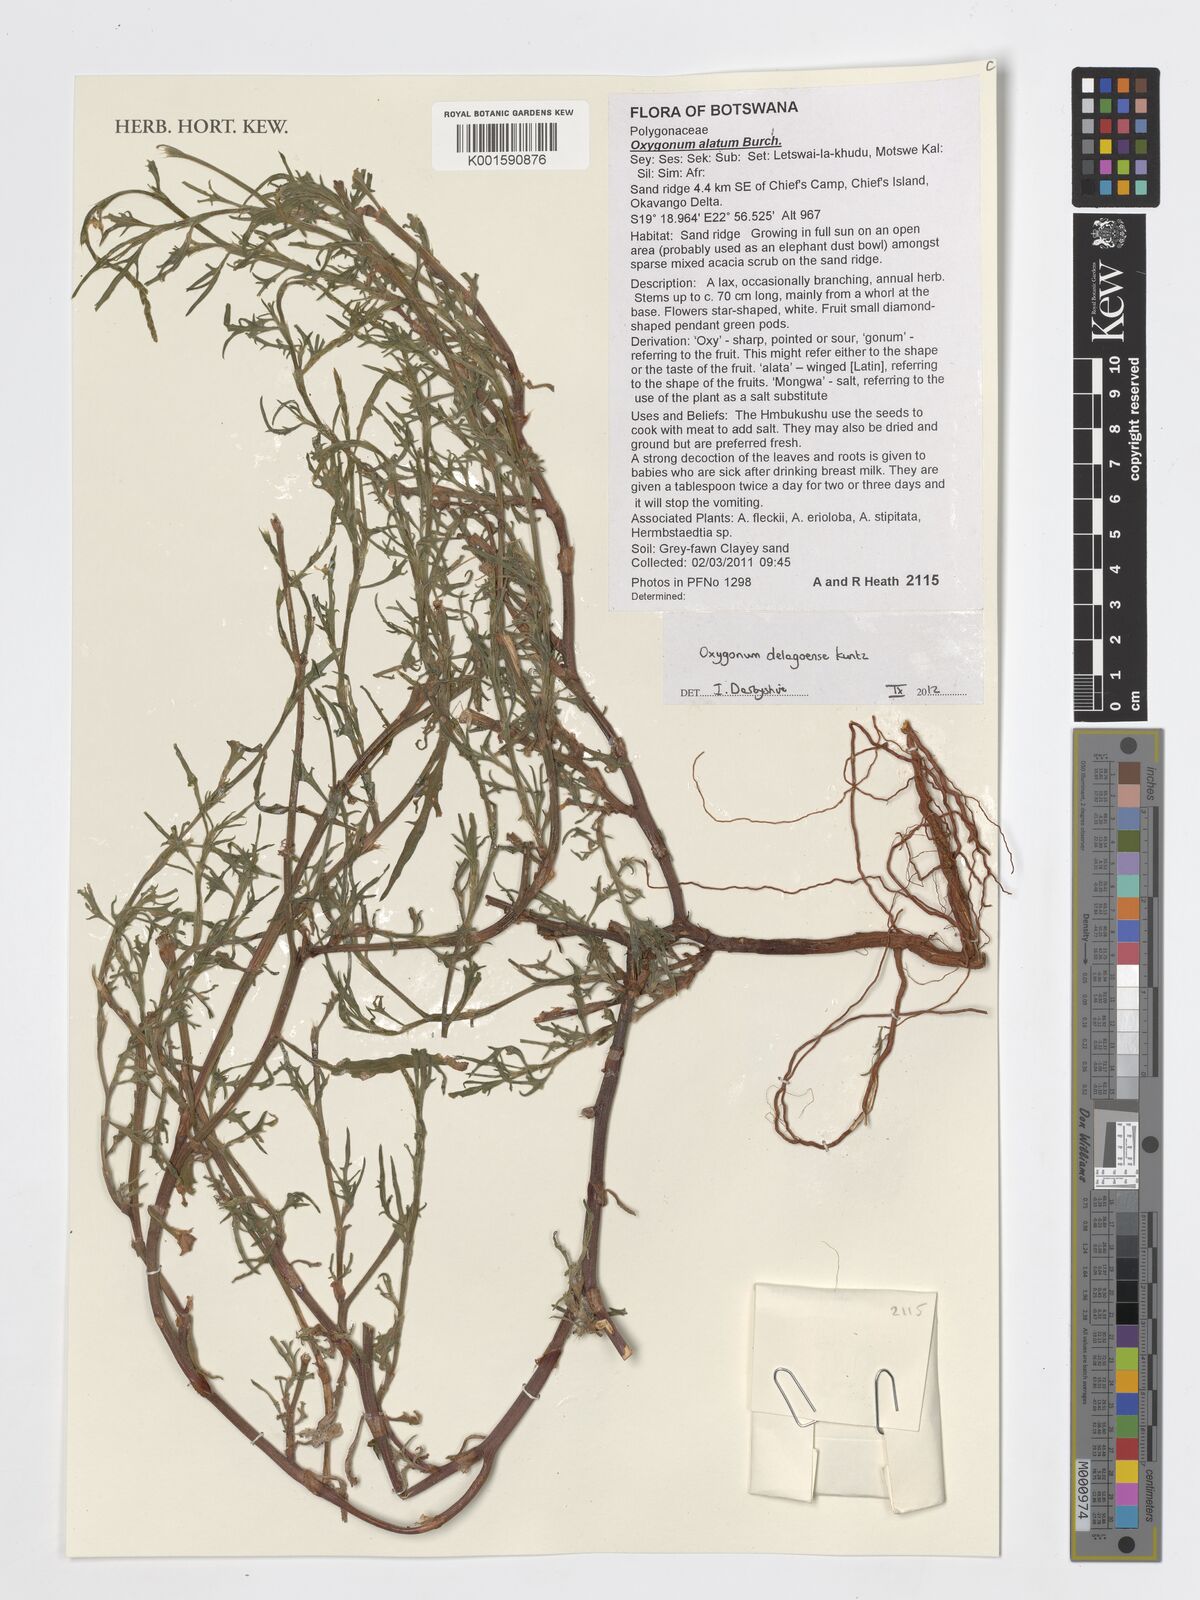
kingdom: Plantae
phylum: Tracheophyta
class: Magnoliopsida
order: Caryophyllales
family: Polygonaceae
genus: Oxygonum
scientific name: Oxygonum alatum
